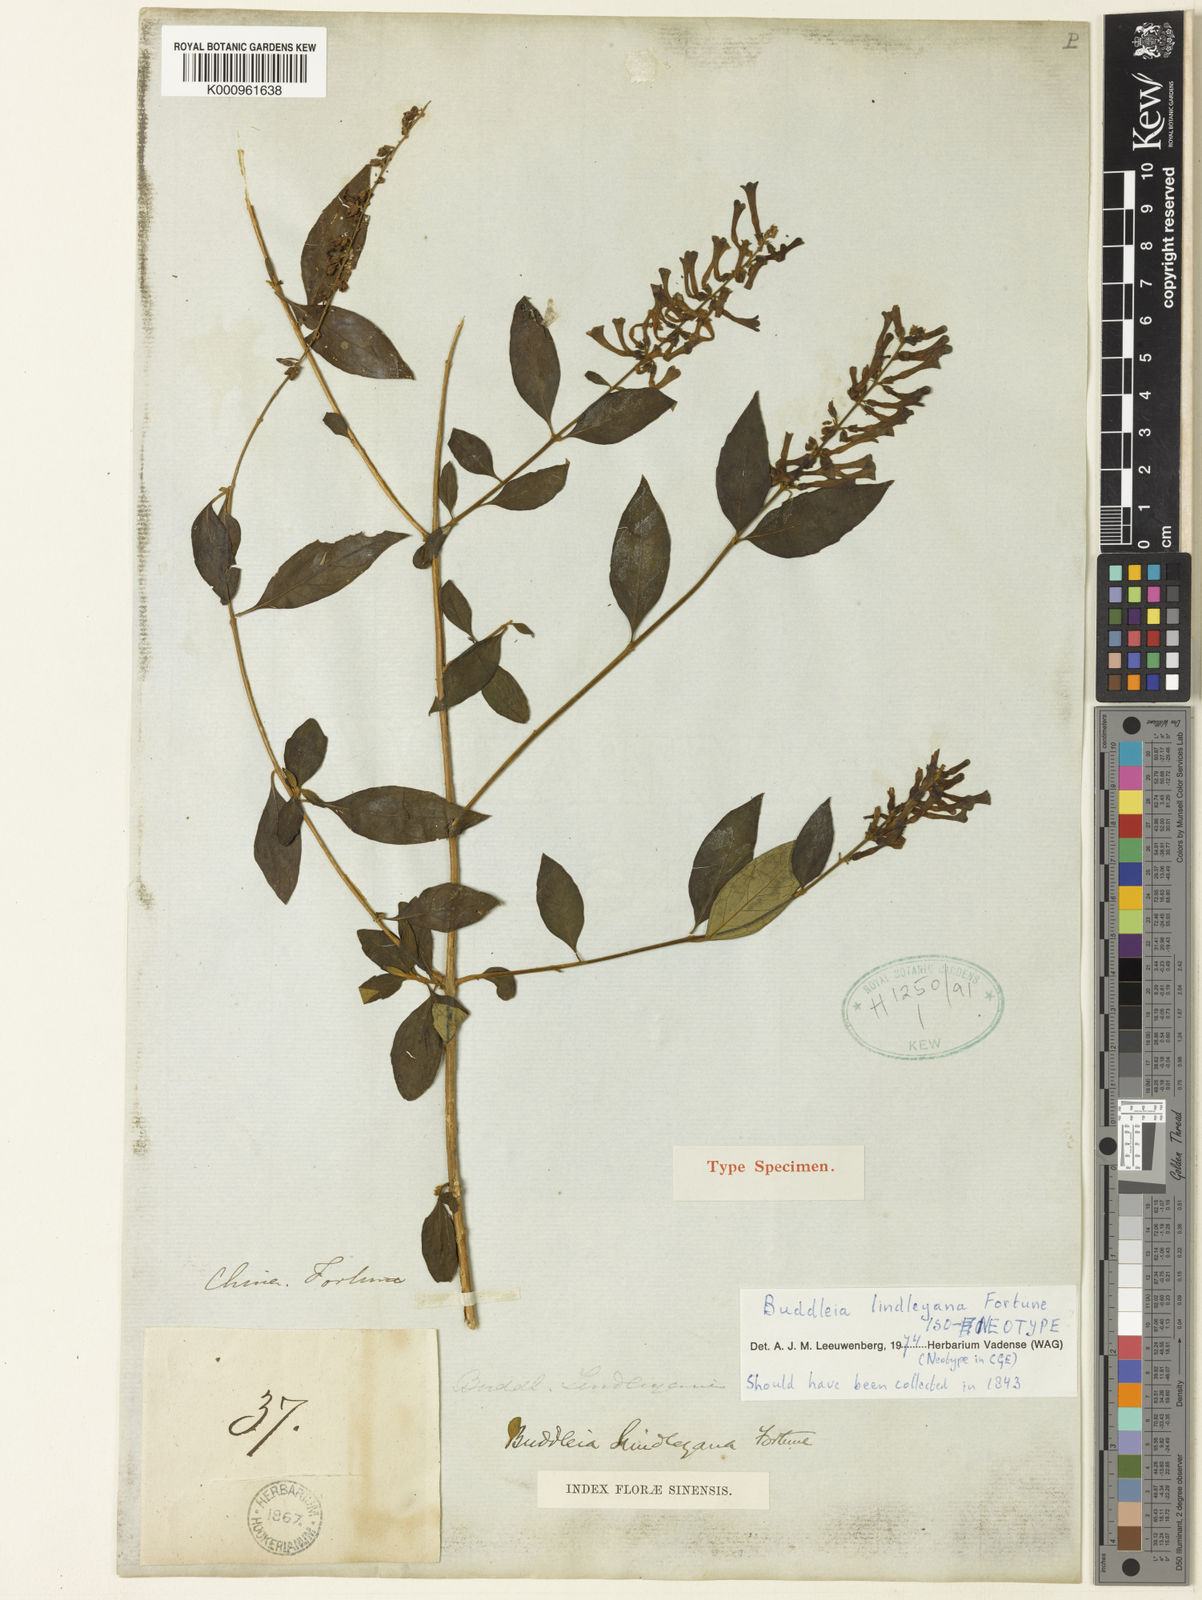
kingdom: Plantae
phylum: Tracheophyta
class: Magnoliopsida
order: Lamiales
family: Scrophulariaceae
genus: Buddleja
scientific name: Buddleja lindleyana
